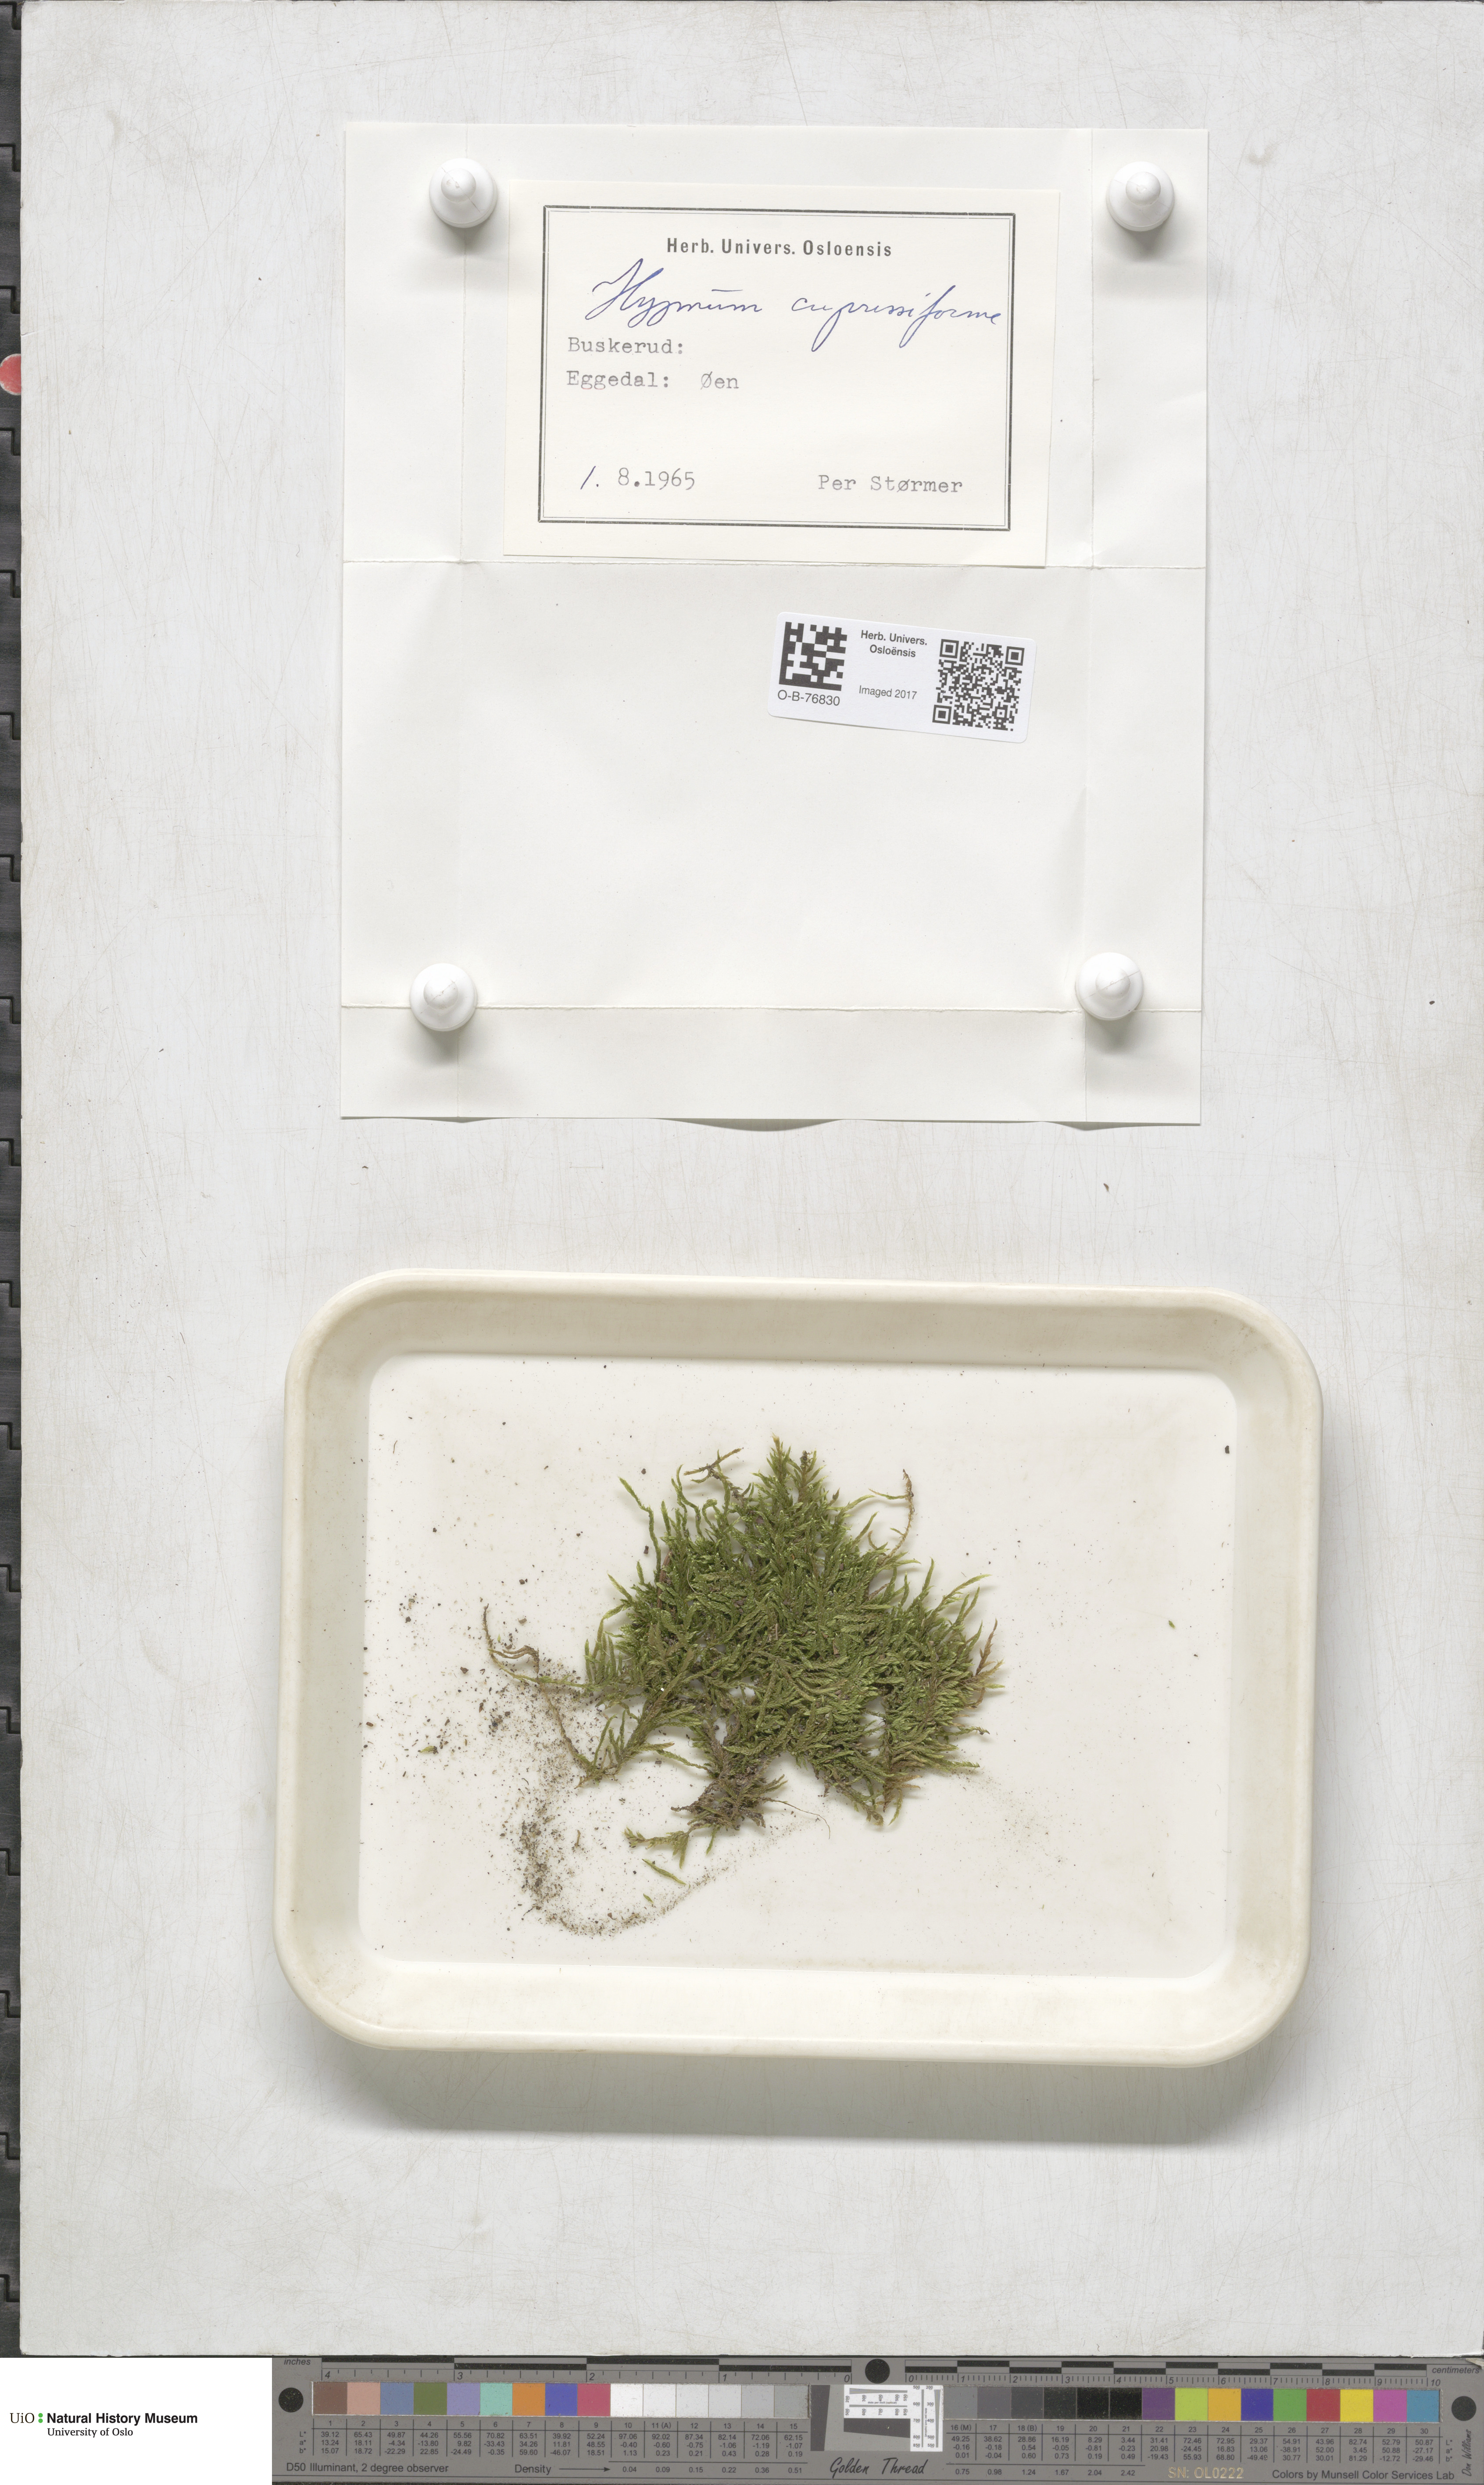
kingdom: Plantae
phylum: Bryophyta
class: Bryopsida
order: Hypnales
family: Hypnaceae
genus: Hypnum
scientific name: Hypnum cupressiforme
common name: Cypress-leaved plait-moss
